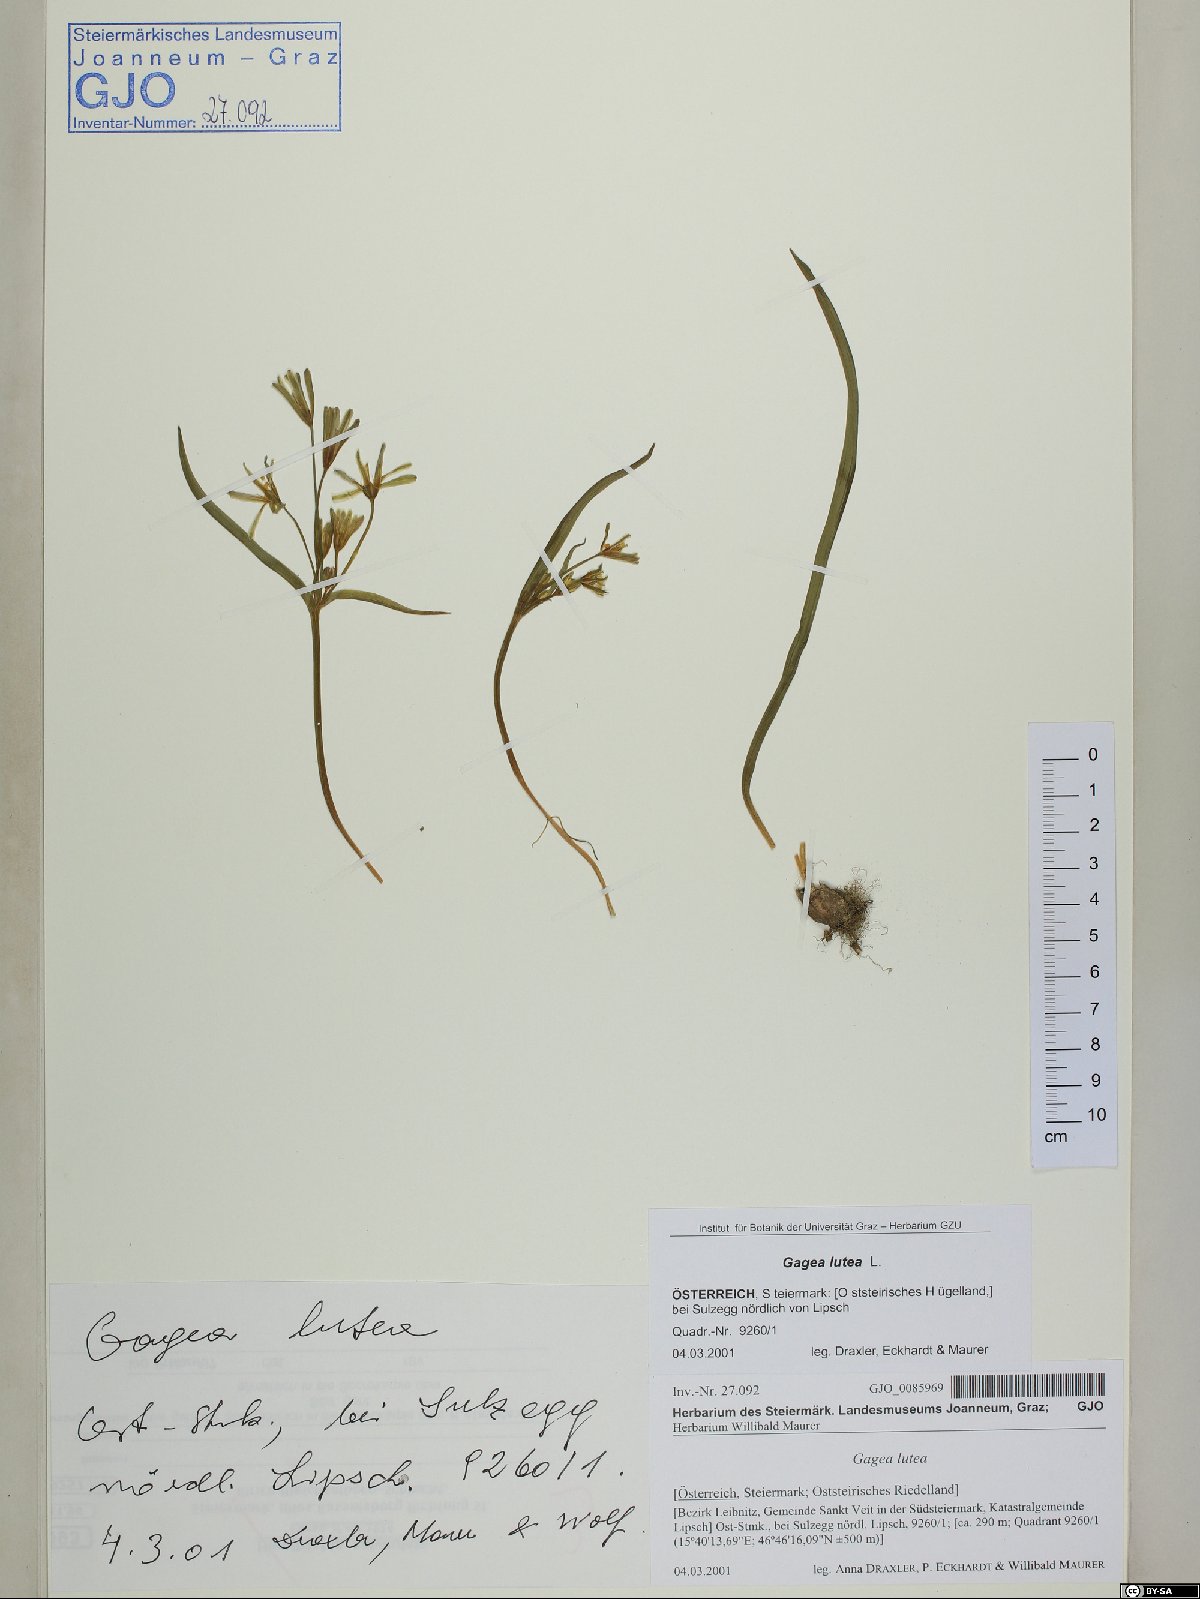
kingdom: Plantae
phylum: Tracheophyta
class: Liliopsida
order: Liliales
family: Liliaceae
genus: Gagea
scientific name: Gagea lutea
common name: Yellow star-of-bethlehem
